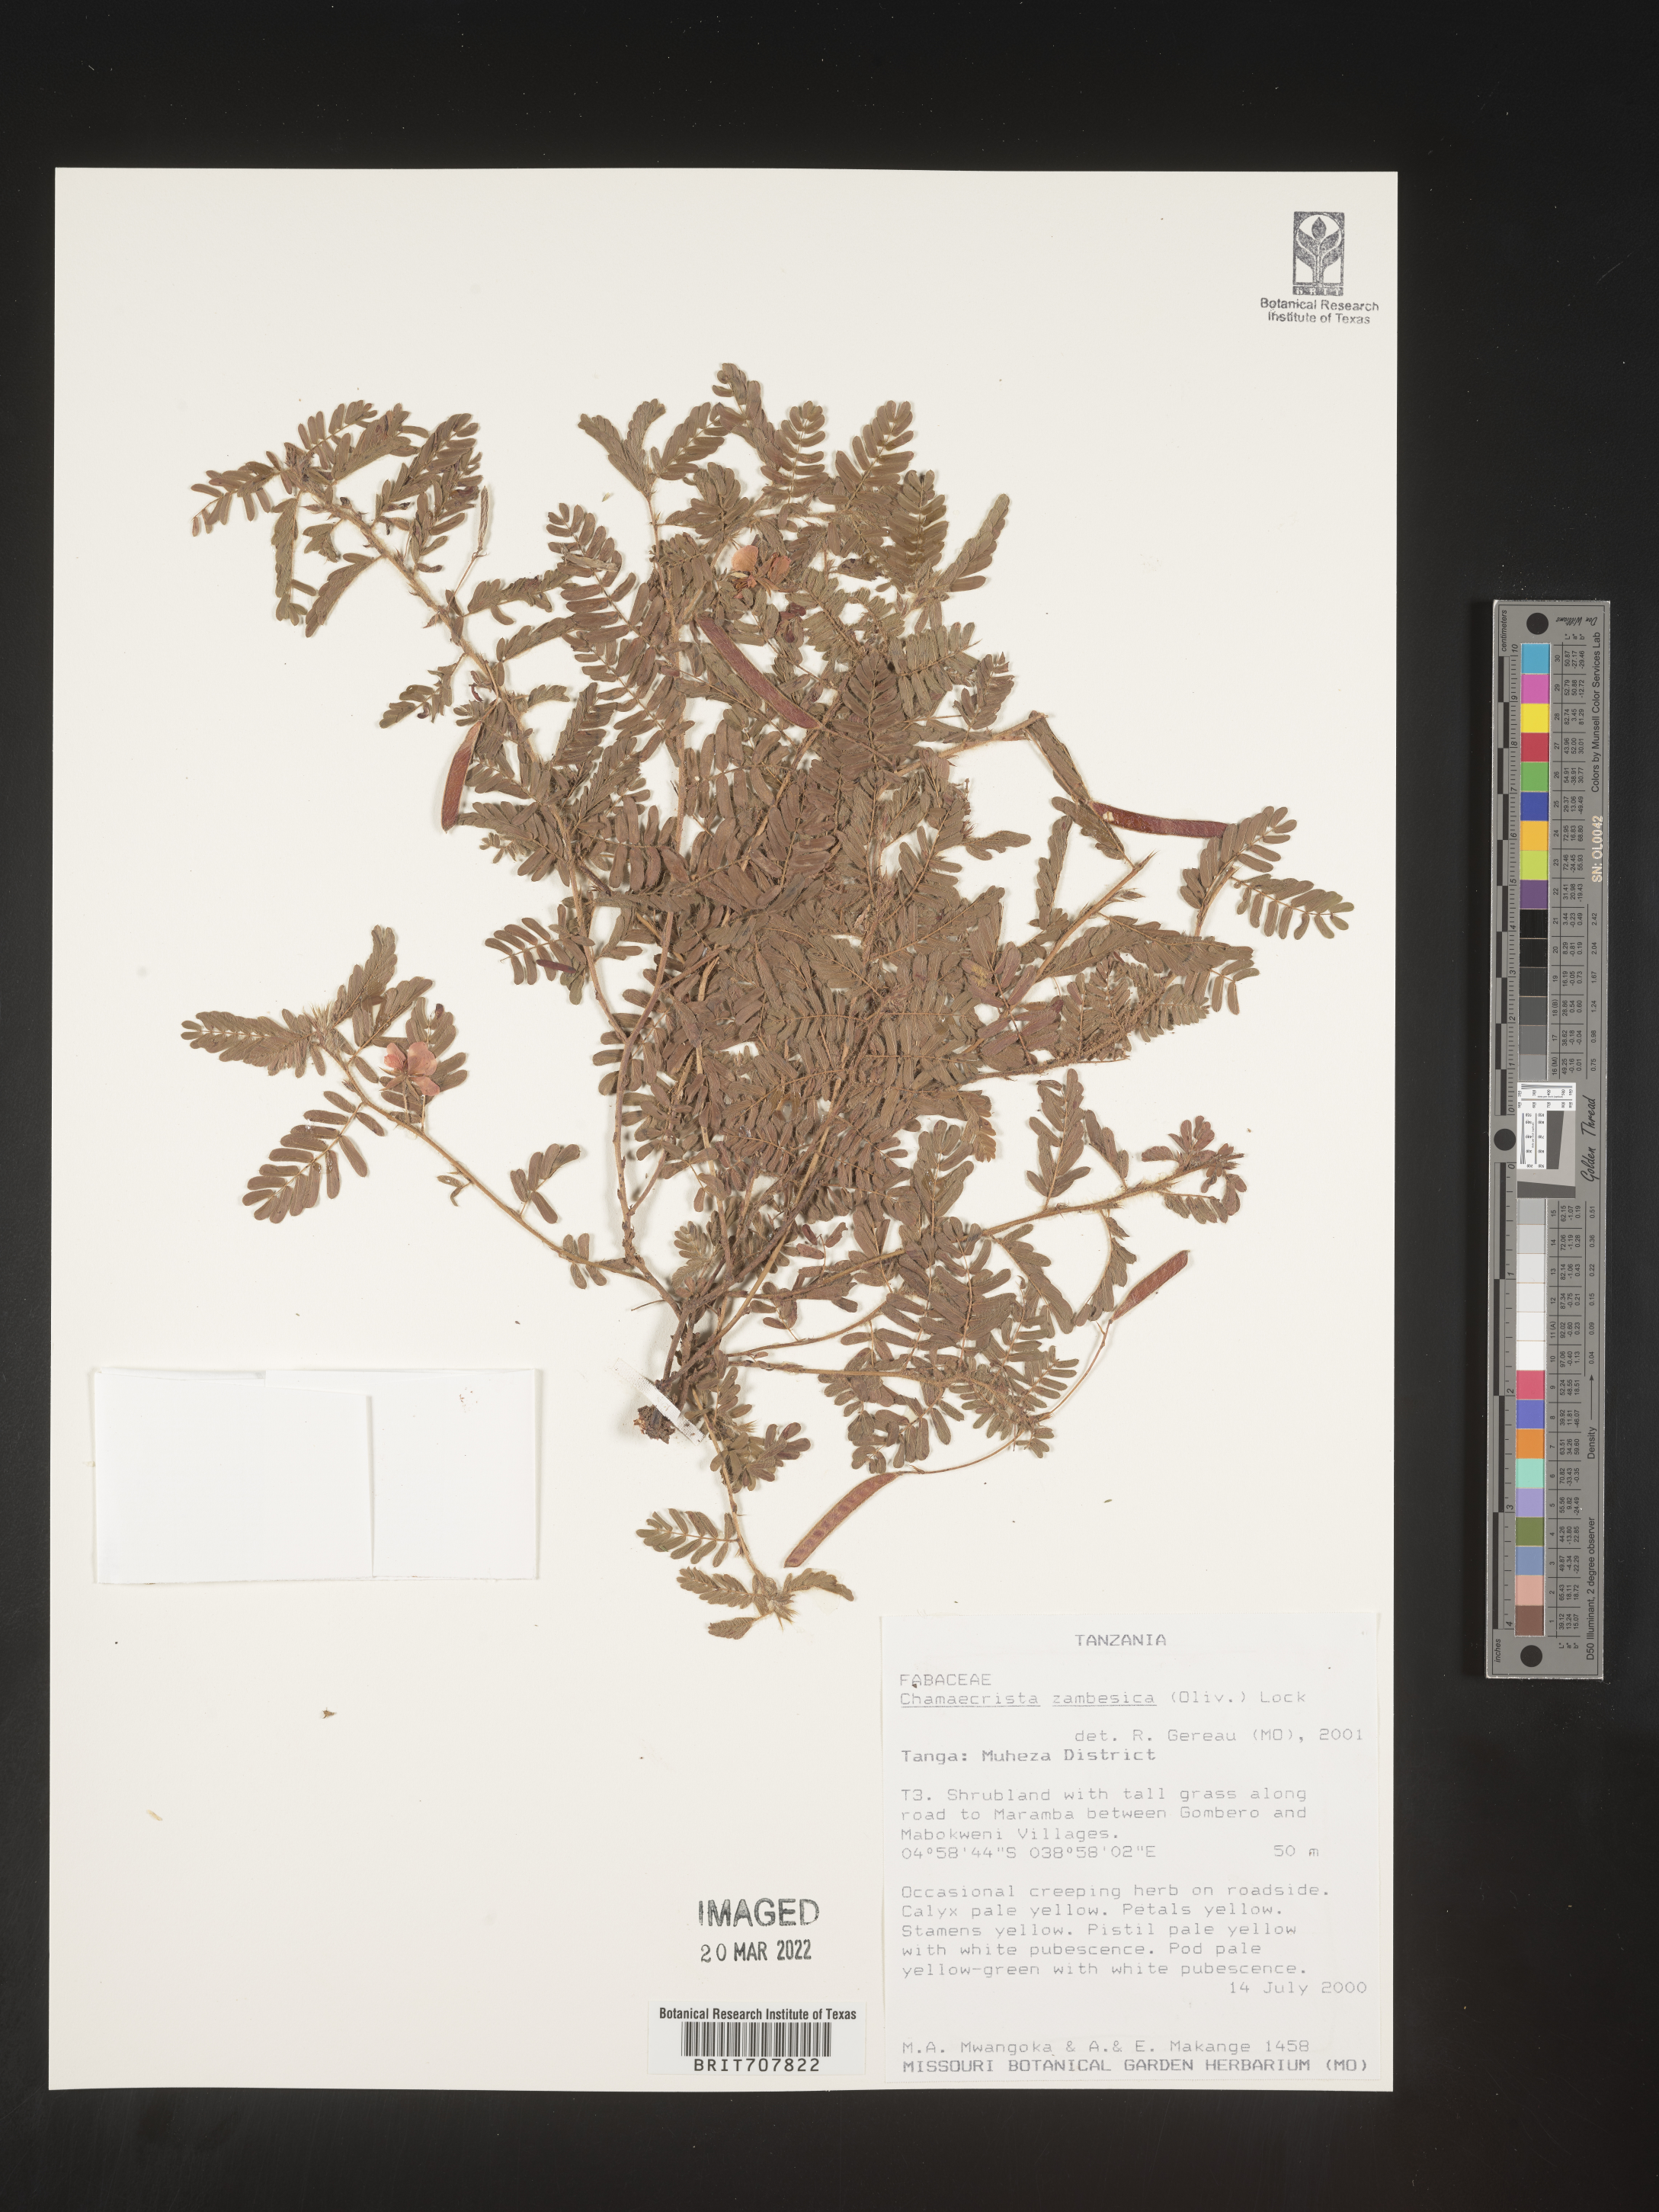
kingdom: Plantae
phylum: Tracheophyta
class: Magnoliopsida
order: Fabales
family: Fabaceae
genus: Chamaecrista
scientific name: Chamaecrista
